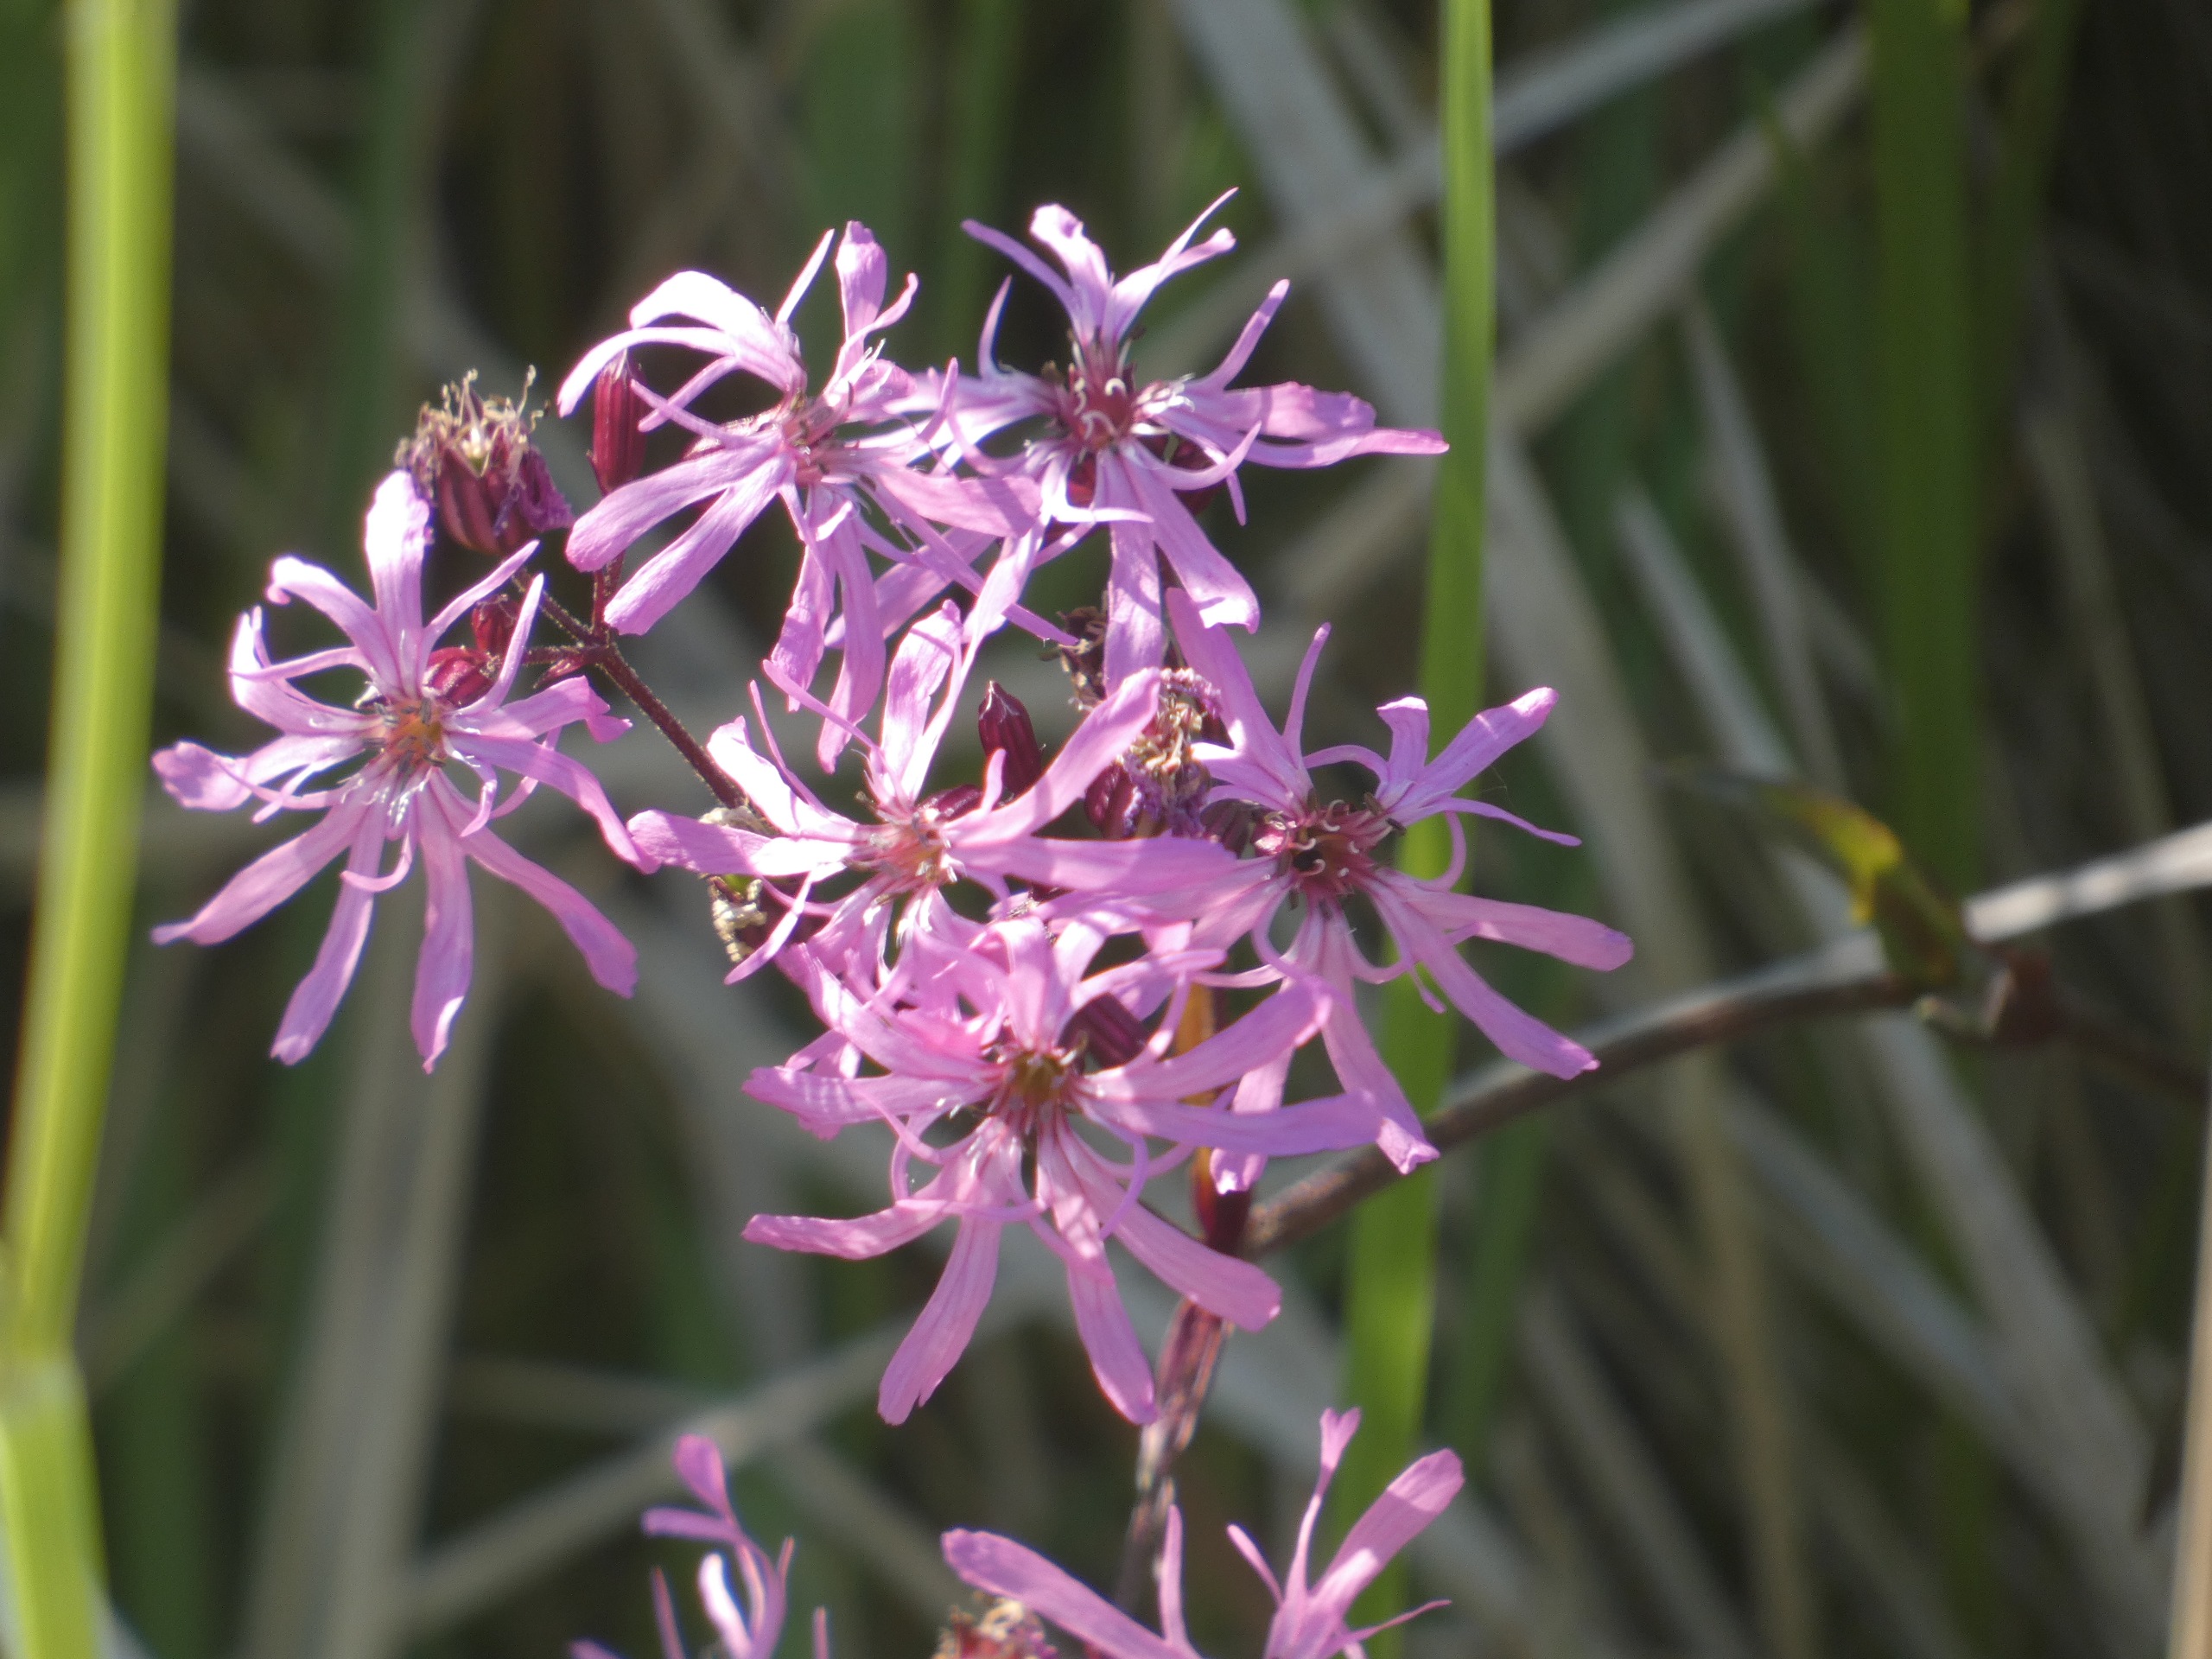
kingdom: Plantae
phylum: Tracheophyta
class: Magnoliopsida
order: Caryophyllales
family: Caryophyllaceae
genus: Silene
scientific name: Silene flos-cuculi
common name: Trævlekrone
